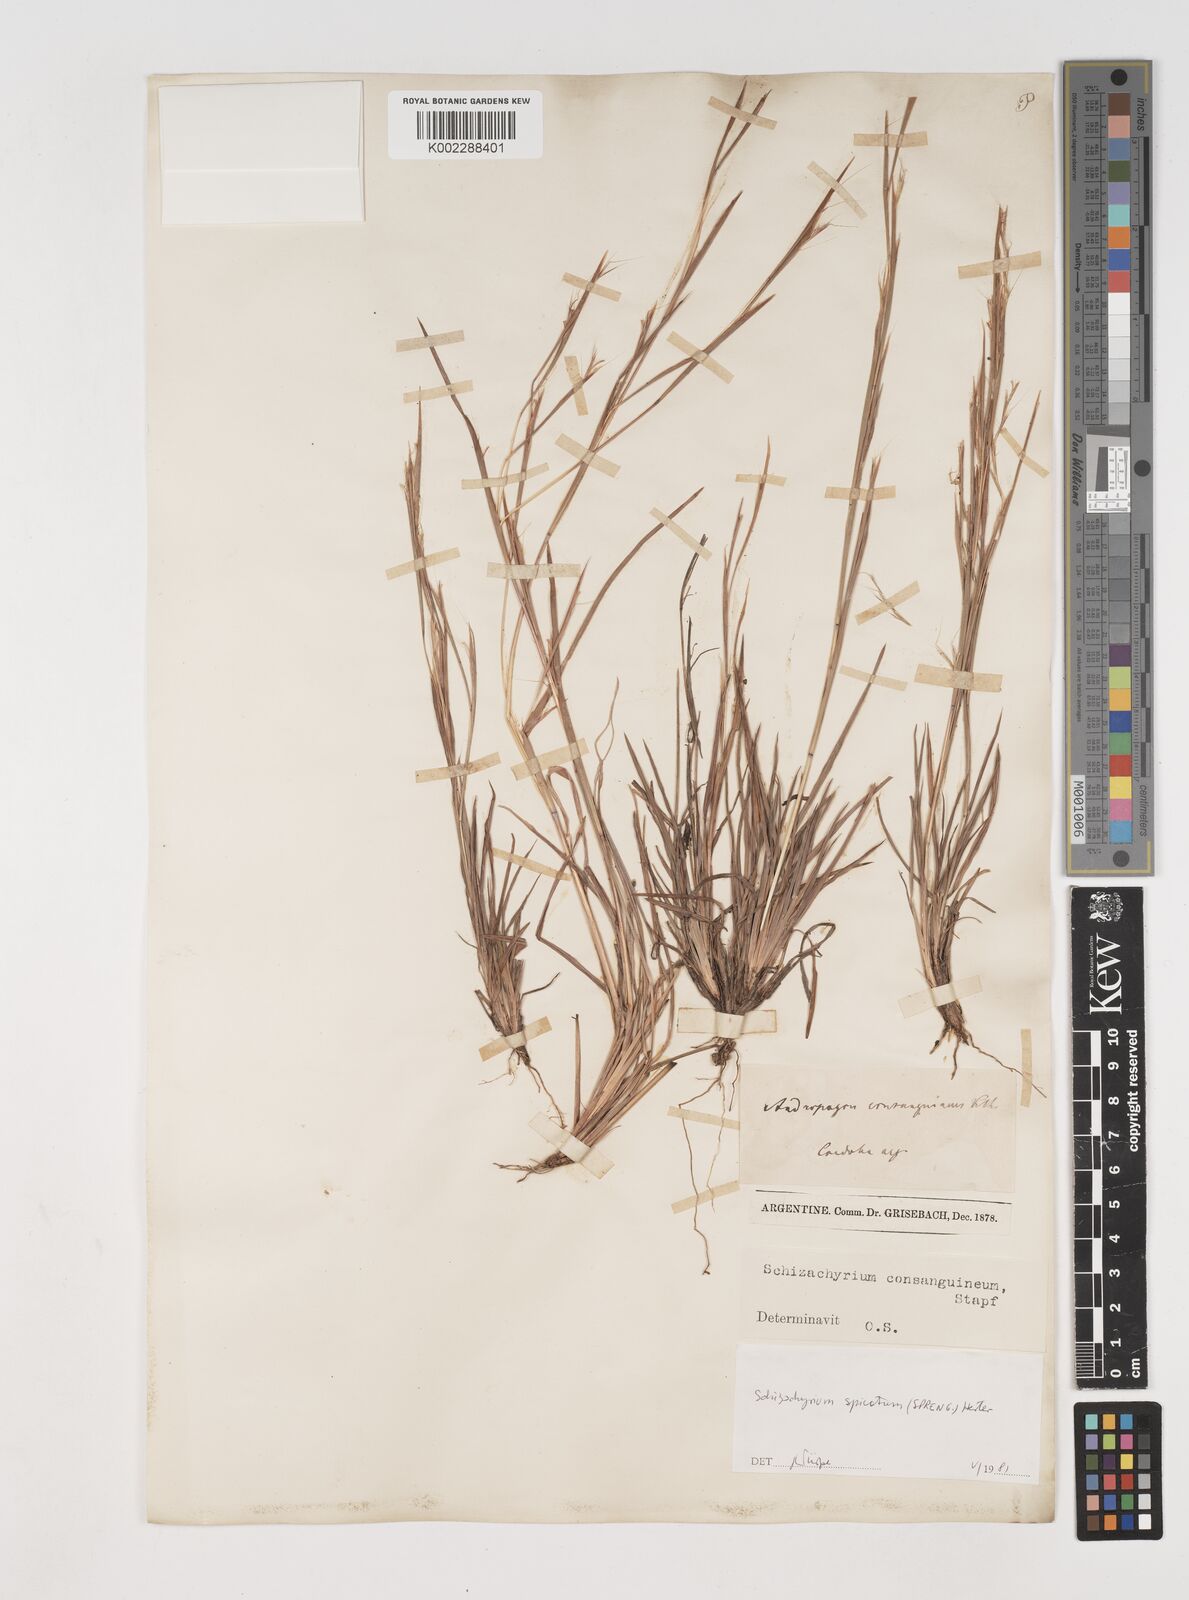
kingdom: Plantae
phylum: Tracheophyta
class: Liliopsida
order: Poales
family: Poaceae
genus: Schizachyrium
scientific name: Schizachyrium spicatum
